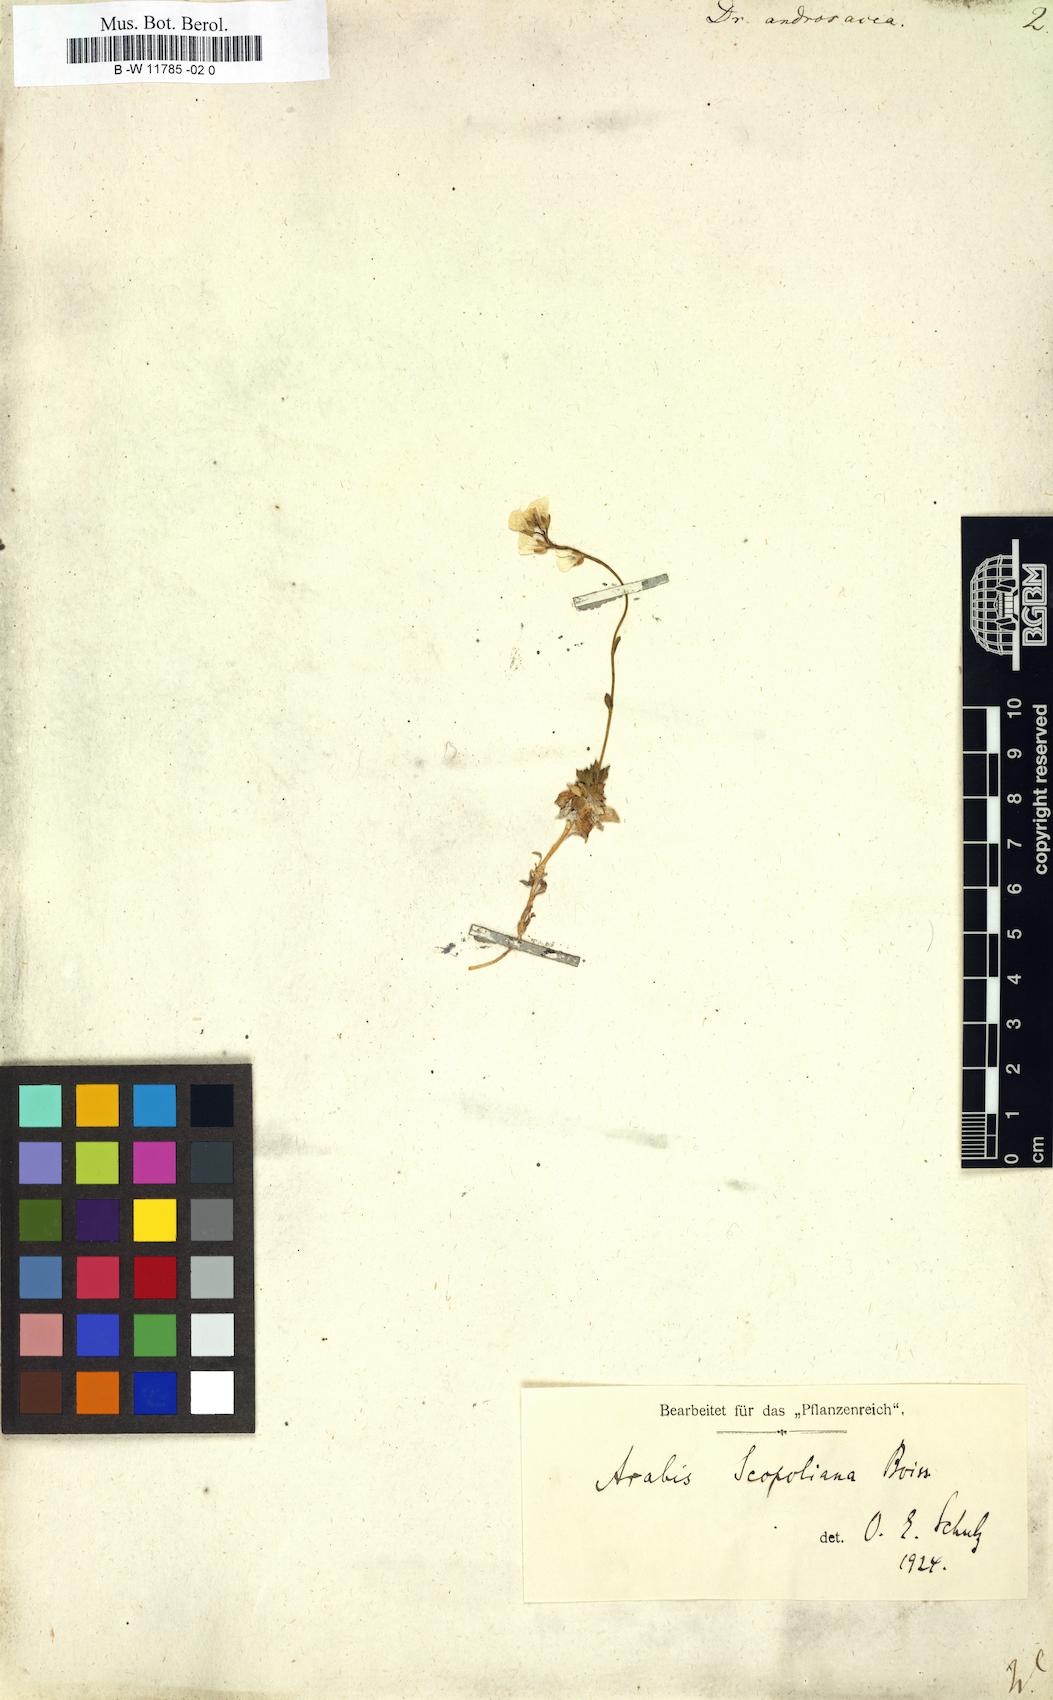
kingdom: Plantae
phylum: Tracheophyta
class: Magnoliopsida
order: Brassicales
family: Brassicaceae
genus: Draba
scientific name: Draba
